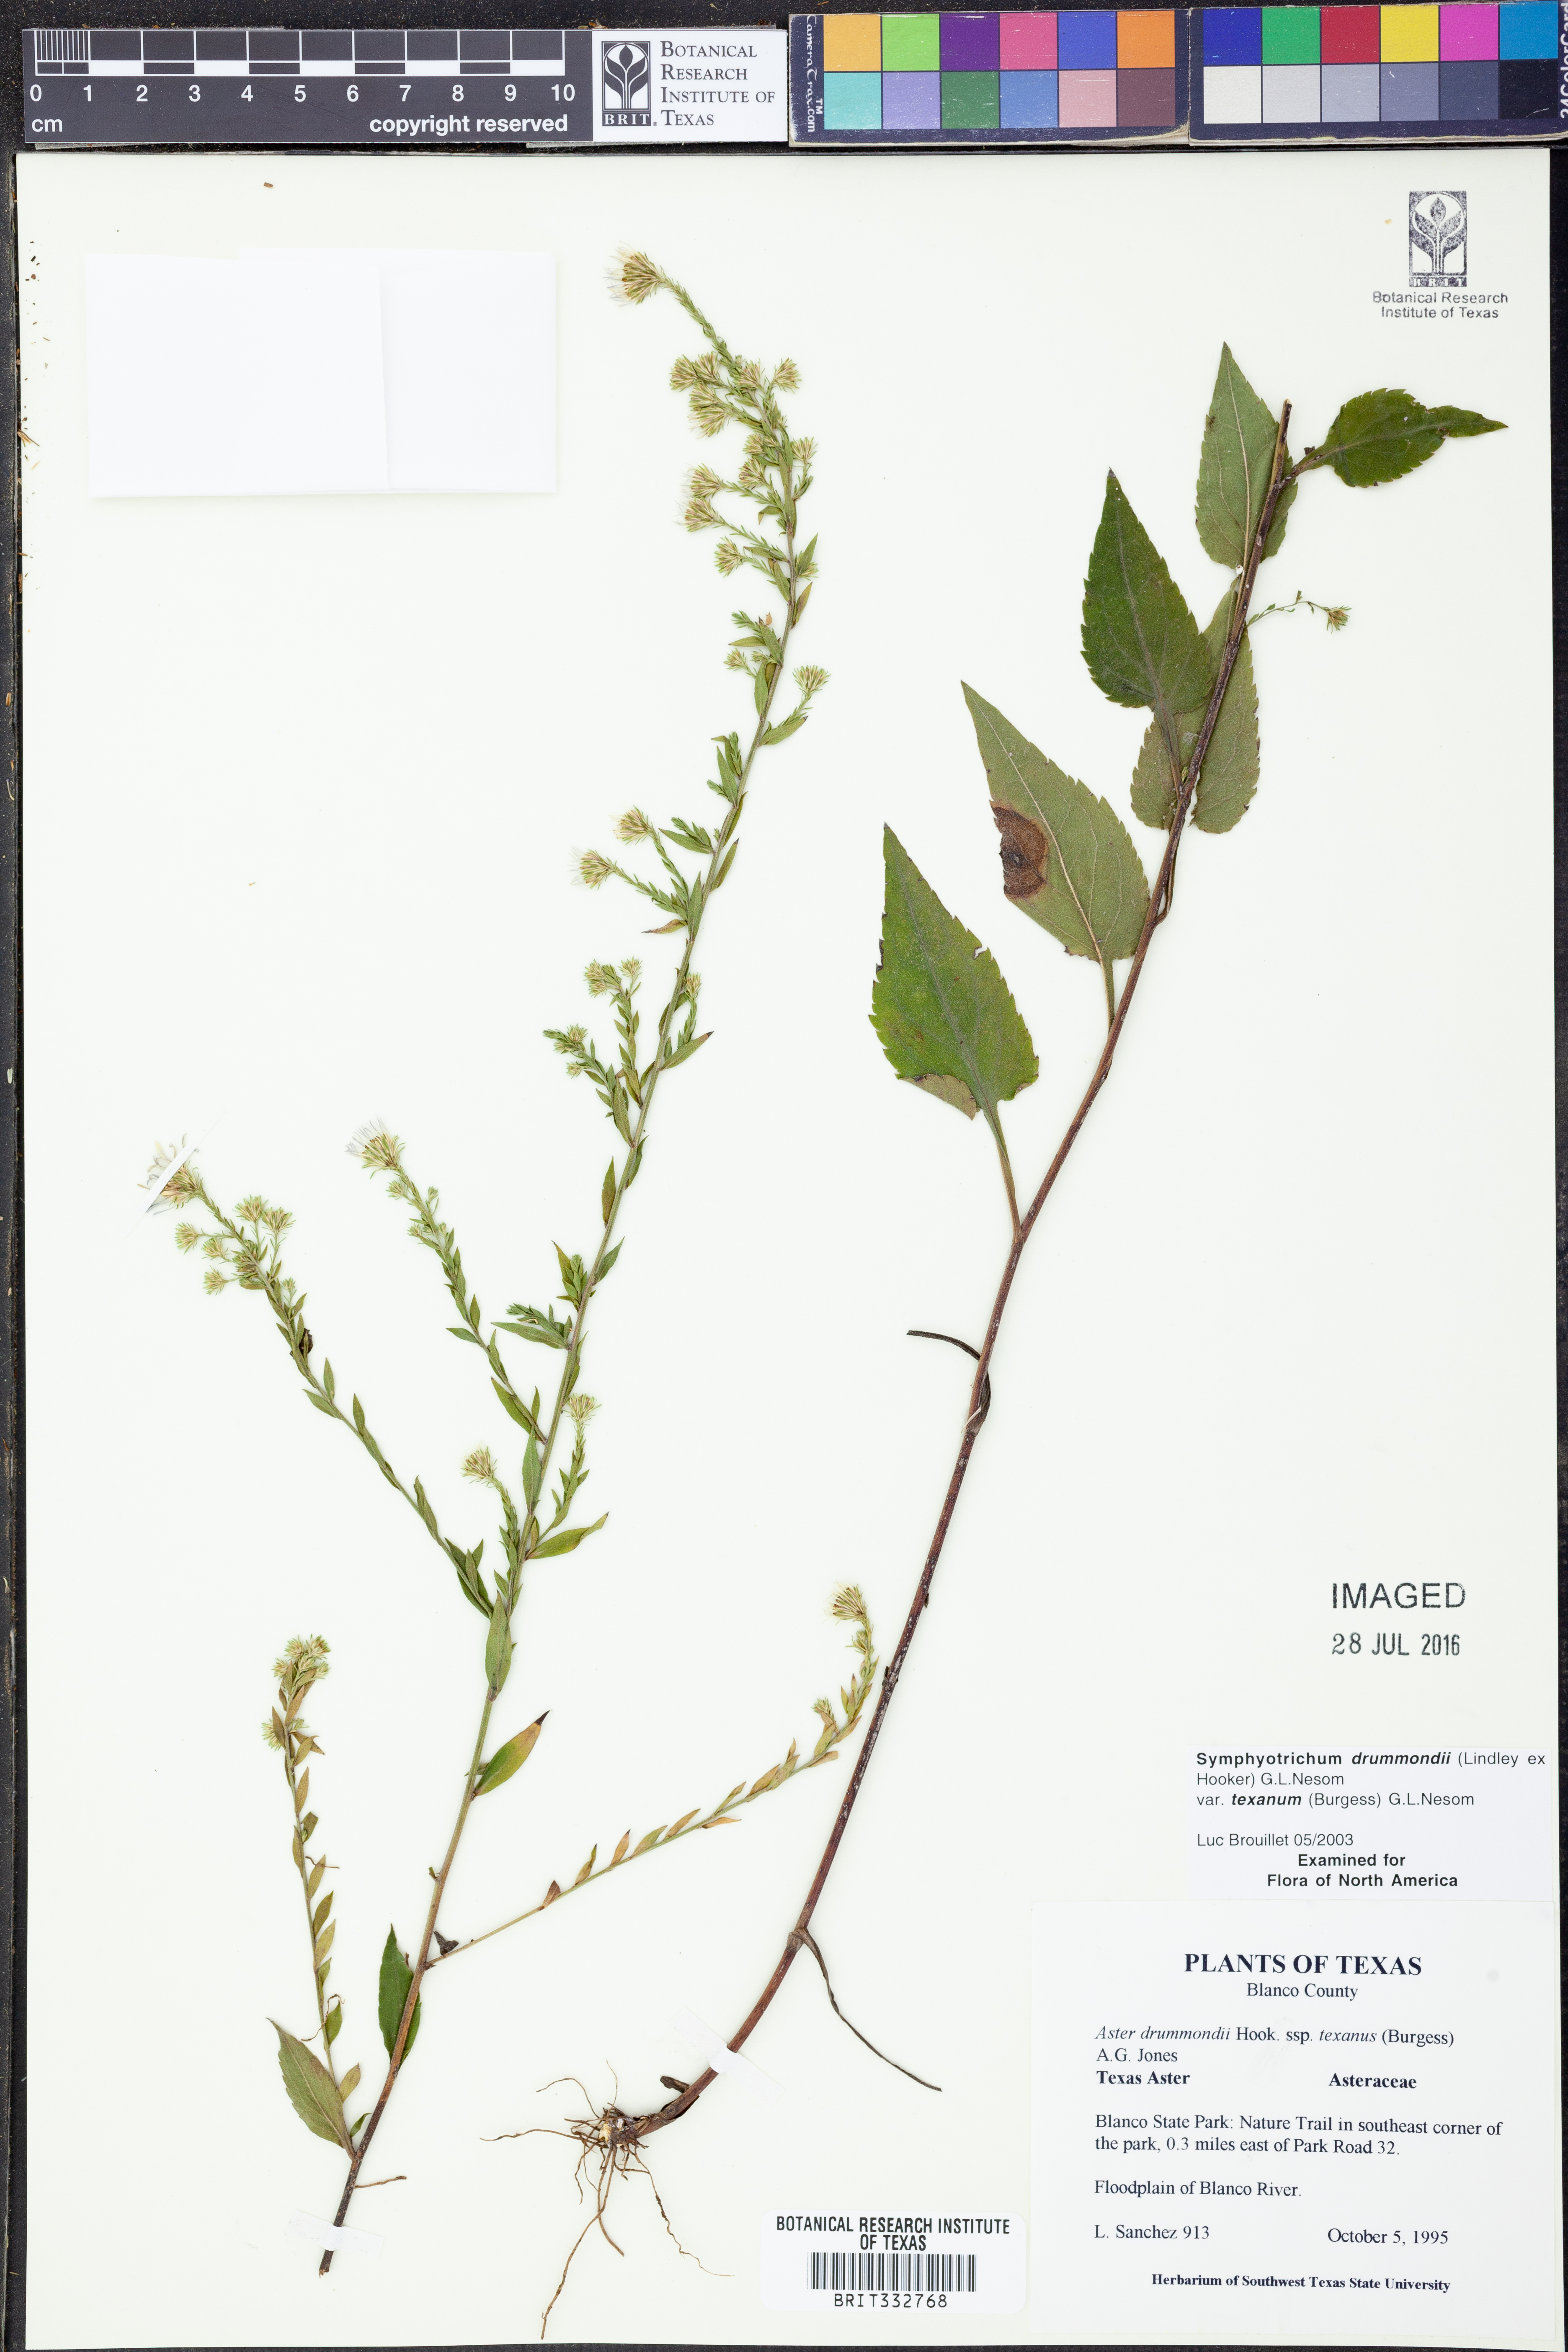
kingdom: Plantae
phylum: Tracheophyta
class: Magnoliopsida
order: Asterales
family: Asteraceae
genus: Symphyotrichum
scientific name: Symphyotrichum drummondii
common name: Drummond's aster
